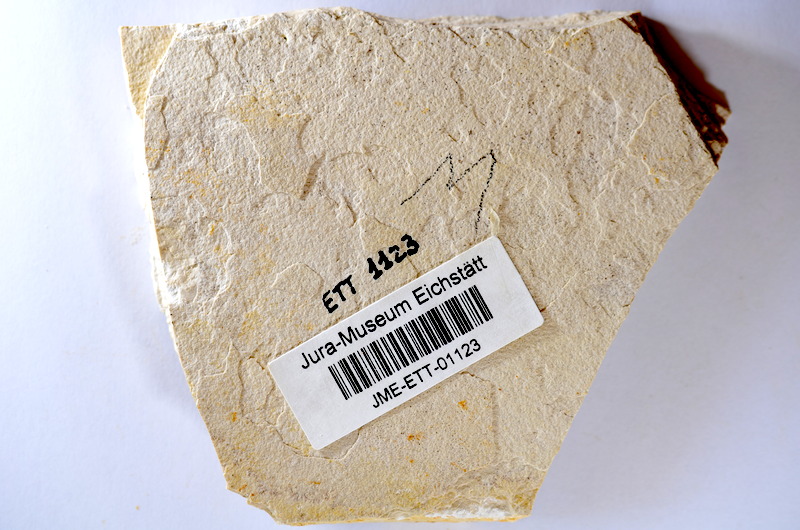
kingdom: Animalia
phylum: Chordata
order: Salmoniformes
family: Orthogonikleithridae
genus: Orthogonikleithrus
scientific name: Orthogonikleithrus hoelli
